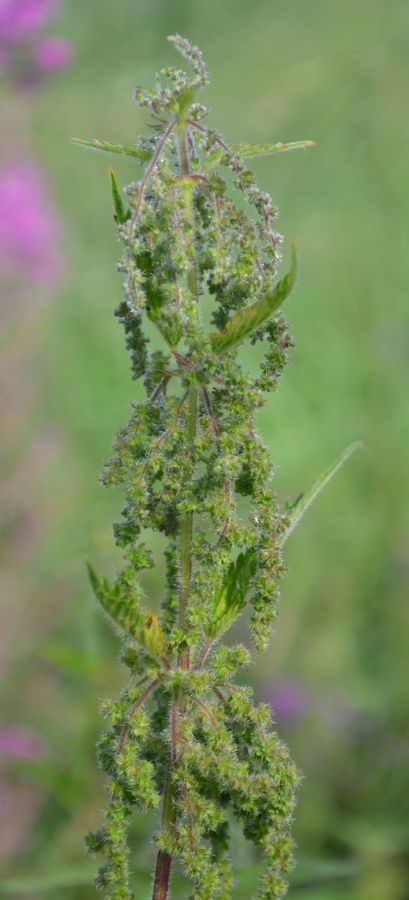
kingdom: Plantae
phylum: Tracheophyta
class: Magnoliopsida
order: Rosales
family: Urticaceae
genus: Urtica
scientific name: Urtica dioica
